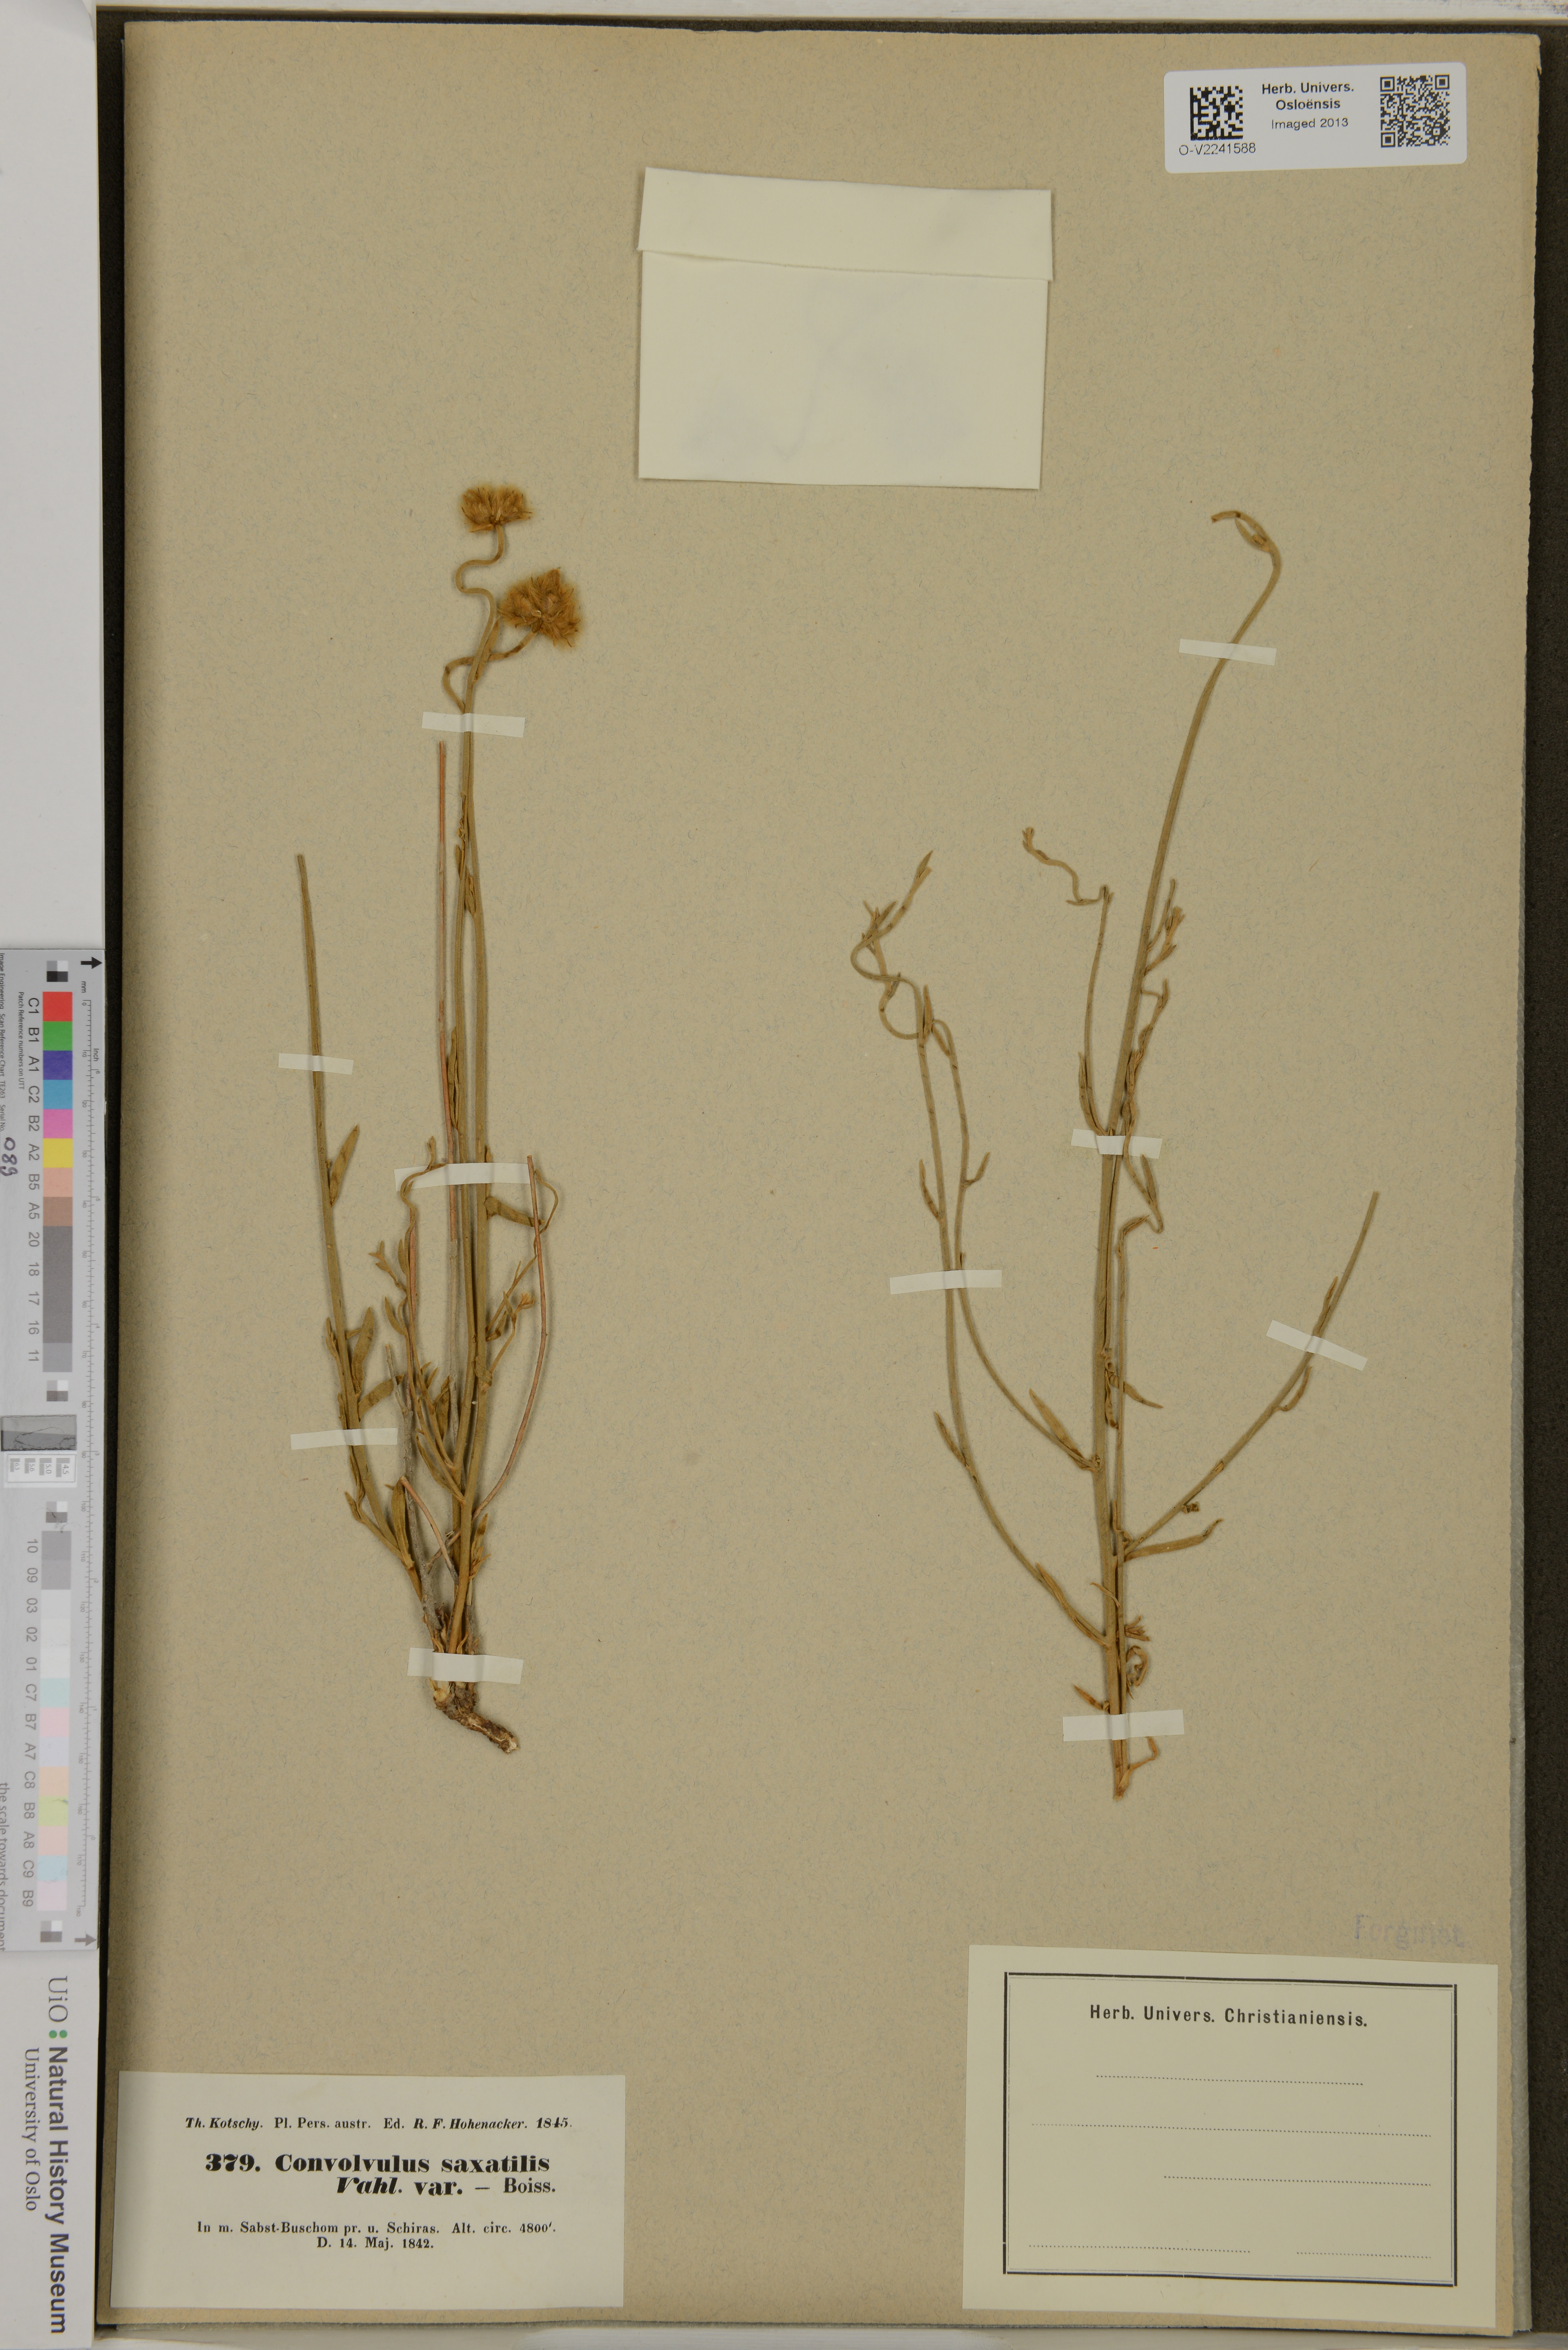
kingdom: Plantae
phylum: Tracheophyta
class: Magnoliopsida
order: Solanales
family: Convolvulaceae
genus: Convolvulus
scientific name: Convolvulus
